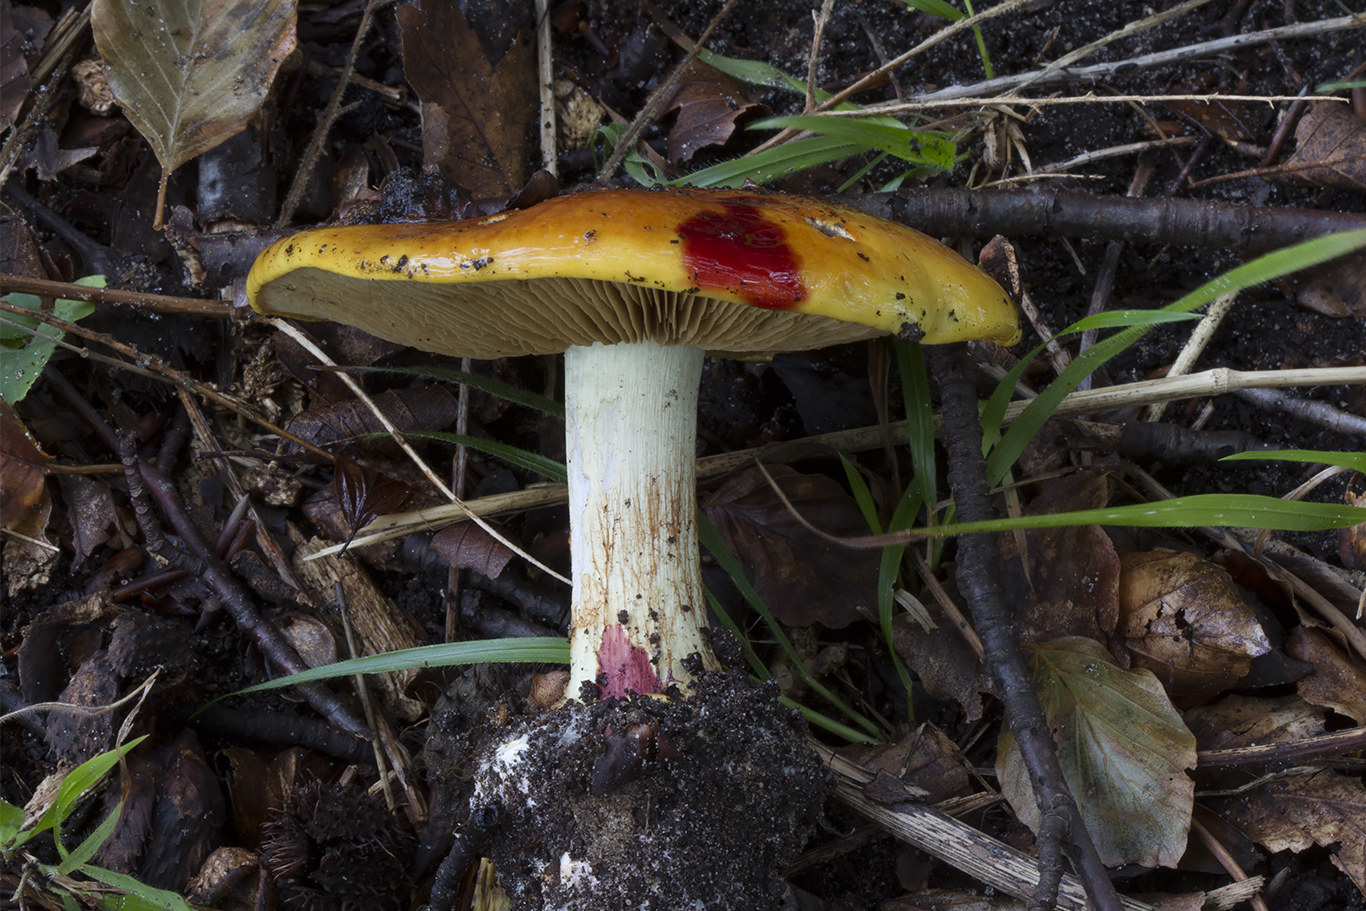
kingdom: Fungi
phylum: Basidiomycota
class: Agaricomycetes
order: Agaricales
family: Cortinariaceae
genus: Cortinarius
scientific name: Cortinarius bergeronii
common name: prægtig slørhat
